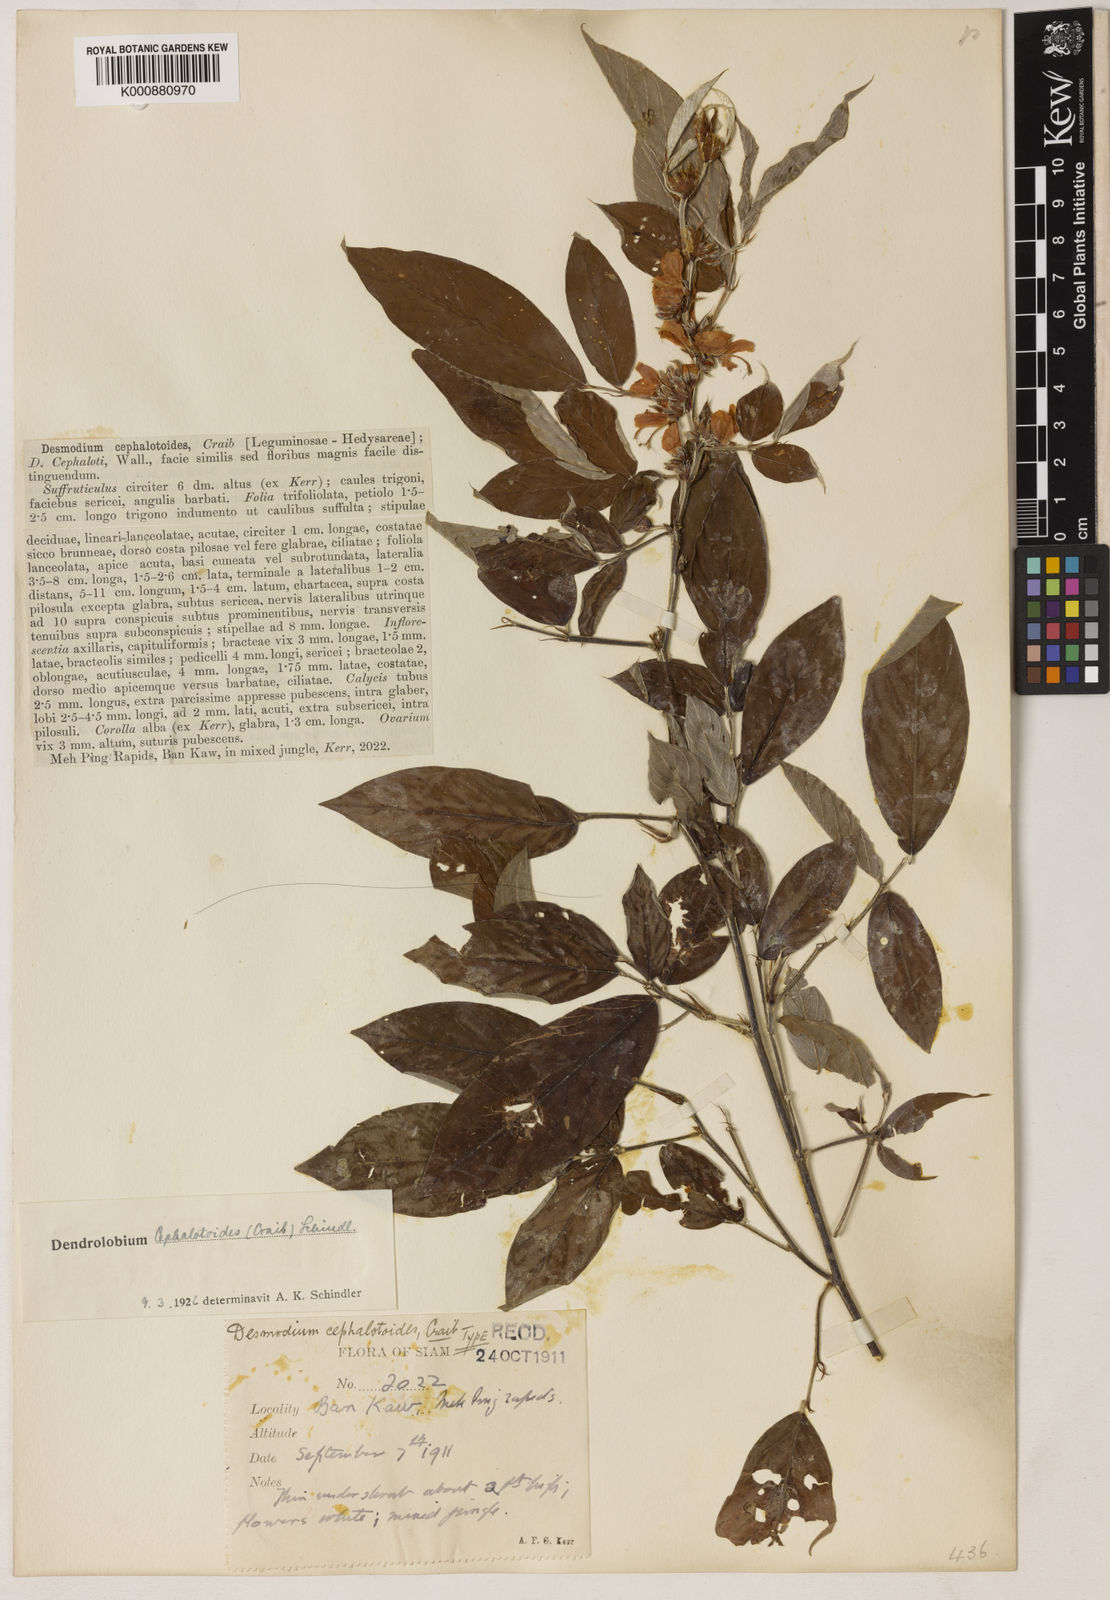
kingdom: Plantae
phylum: Tracheophyta
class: Magnoliopsida
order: Fabales
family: Fabaceae
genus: Dendrolobium
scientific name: Dendrolobium triangulare
